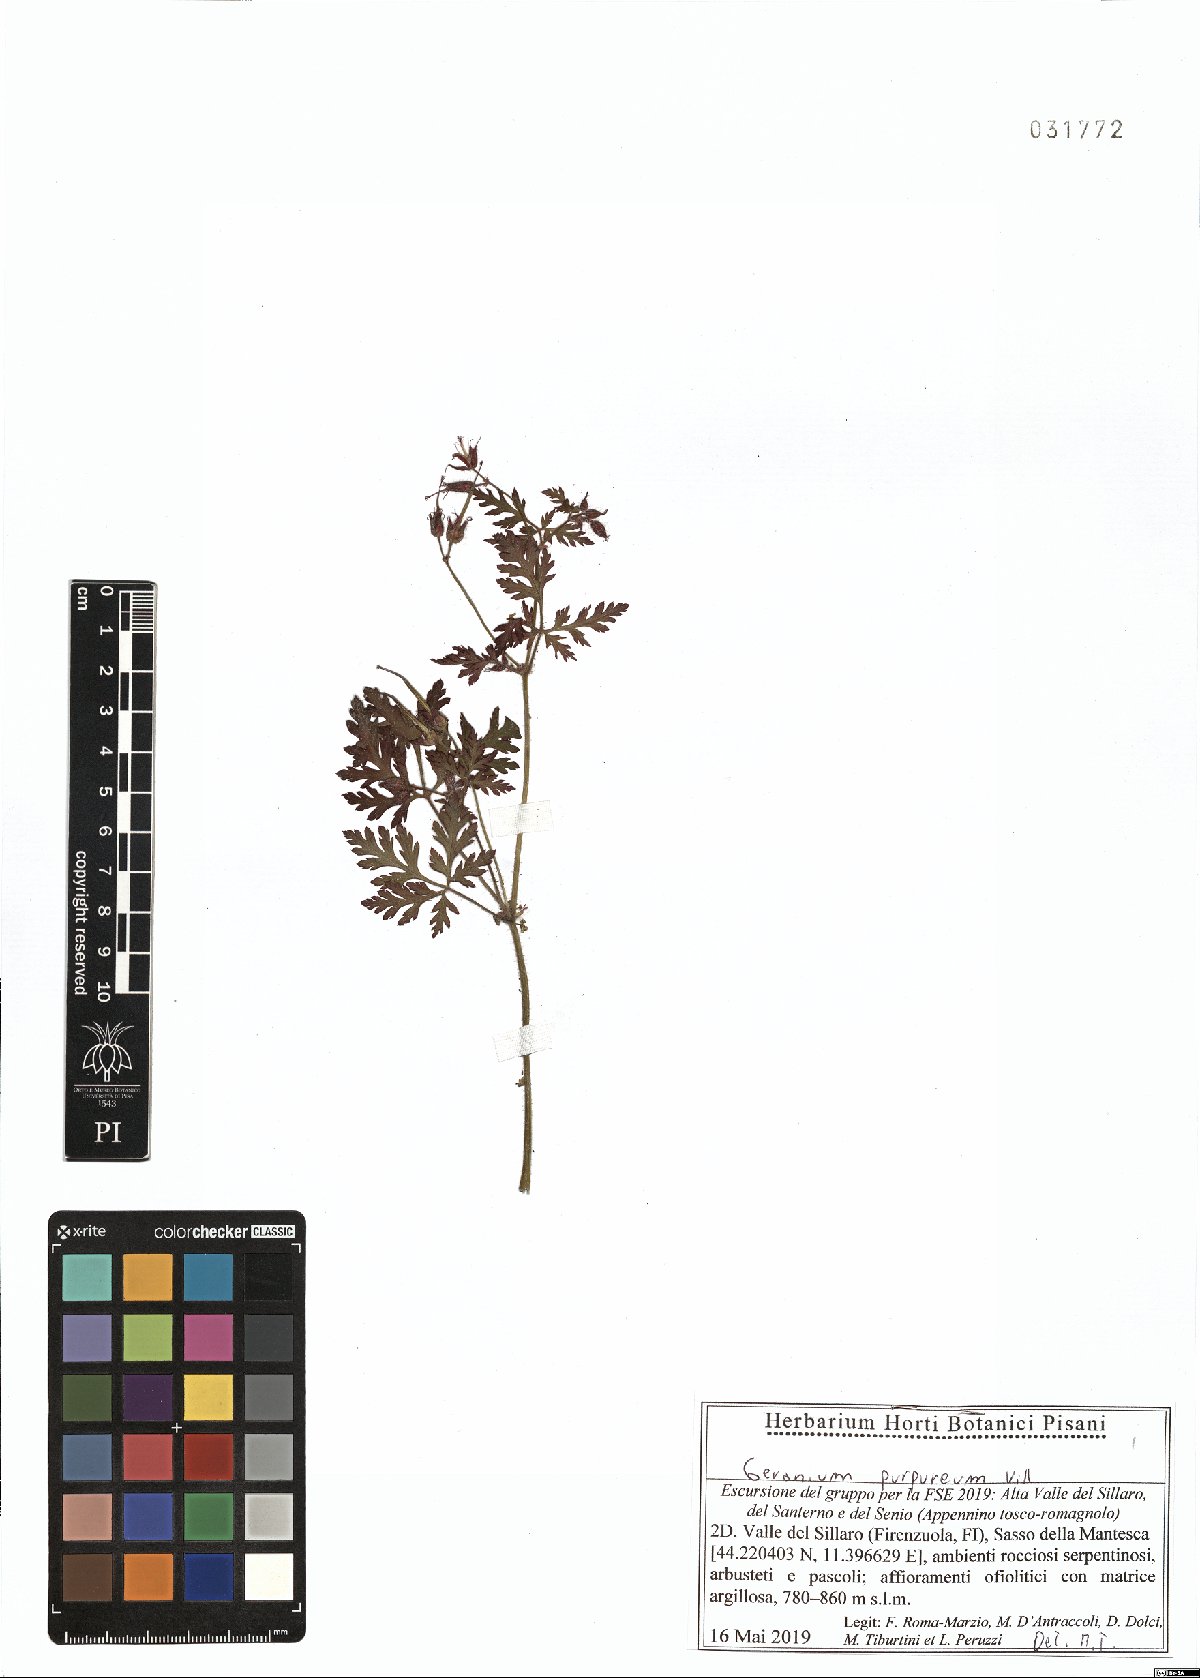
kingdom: Plantae
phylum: Tracheophyta
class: Magnoliopsida
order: Geraniales
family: Geraniaceae
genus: Geranium
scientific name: Geranium purpureum
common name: Little-robin
